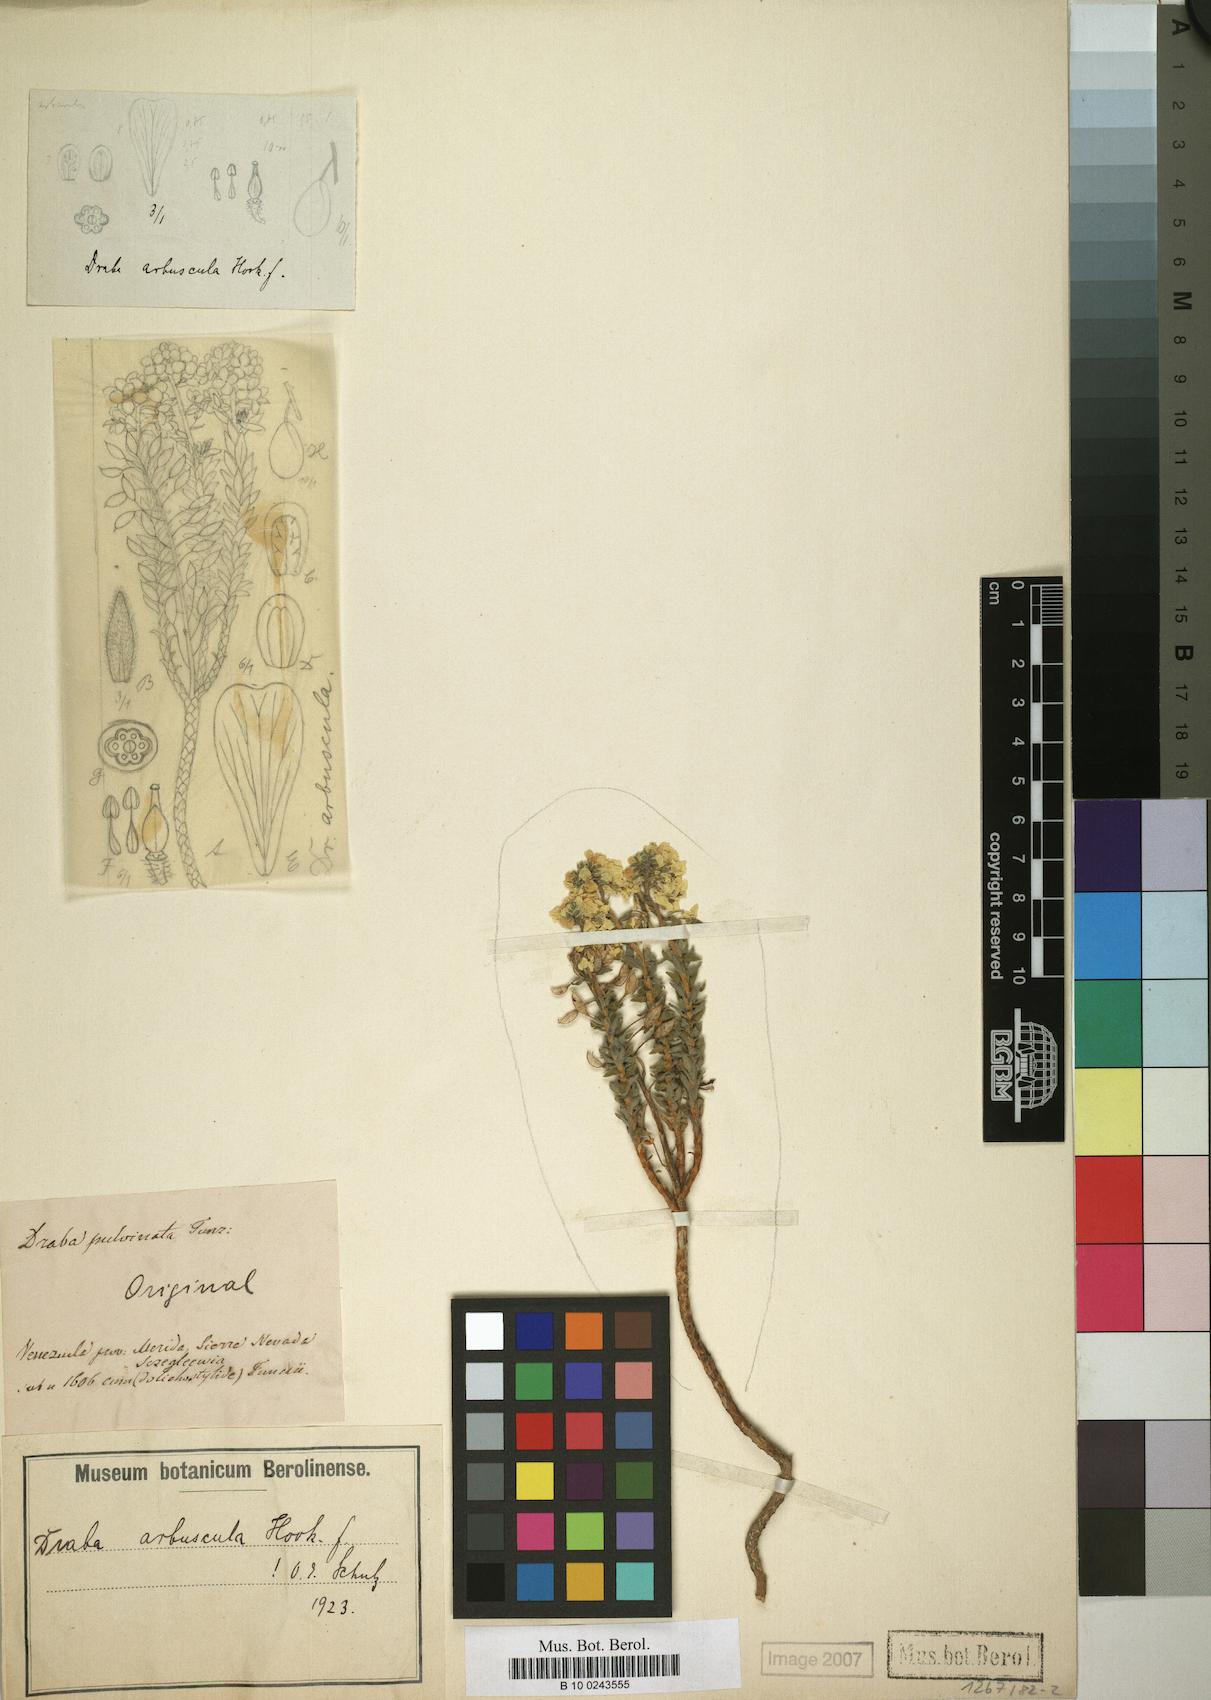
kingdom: Plantae
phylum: Tracheophyta
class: Magnoliopsida
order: Brassicales
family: Brassicaceae
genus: Draba
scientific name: Draba arbuscula
